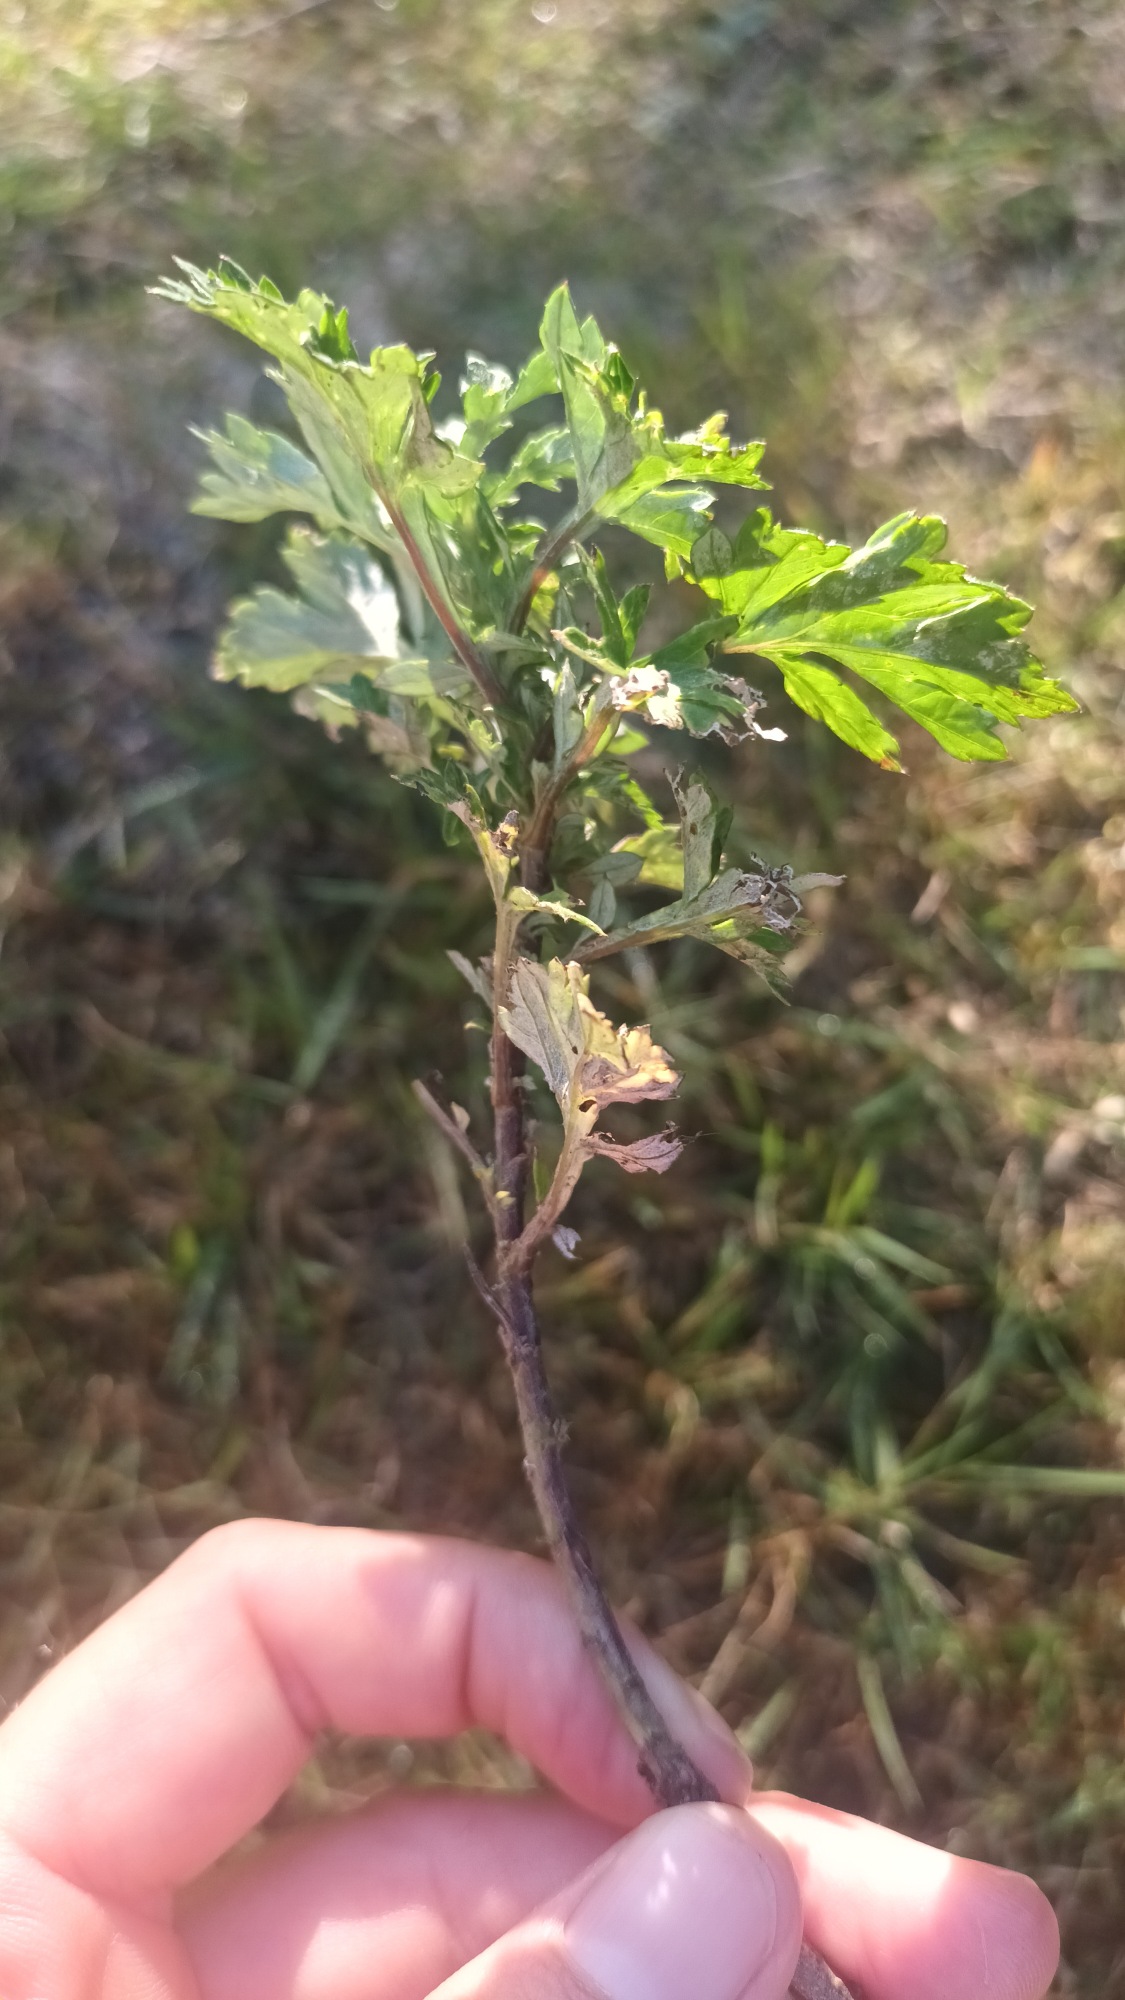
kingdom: Plantae
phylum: Tracheophyta
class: Magnoliopsida
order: Asterales
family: Asteraceae
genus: Artemisia
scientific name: Artemisia vulgaris
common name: Grå-bynke
